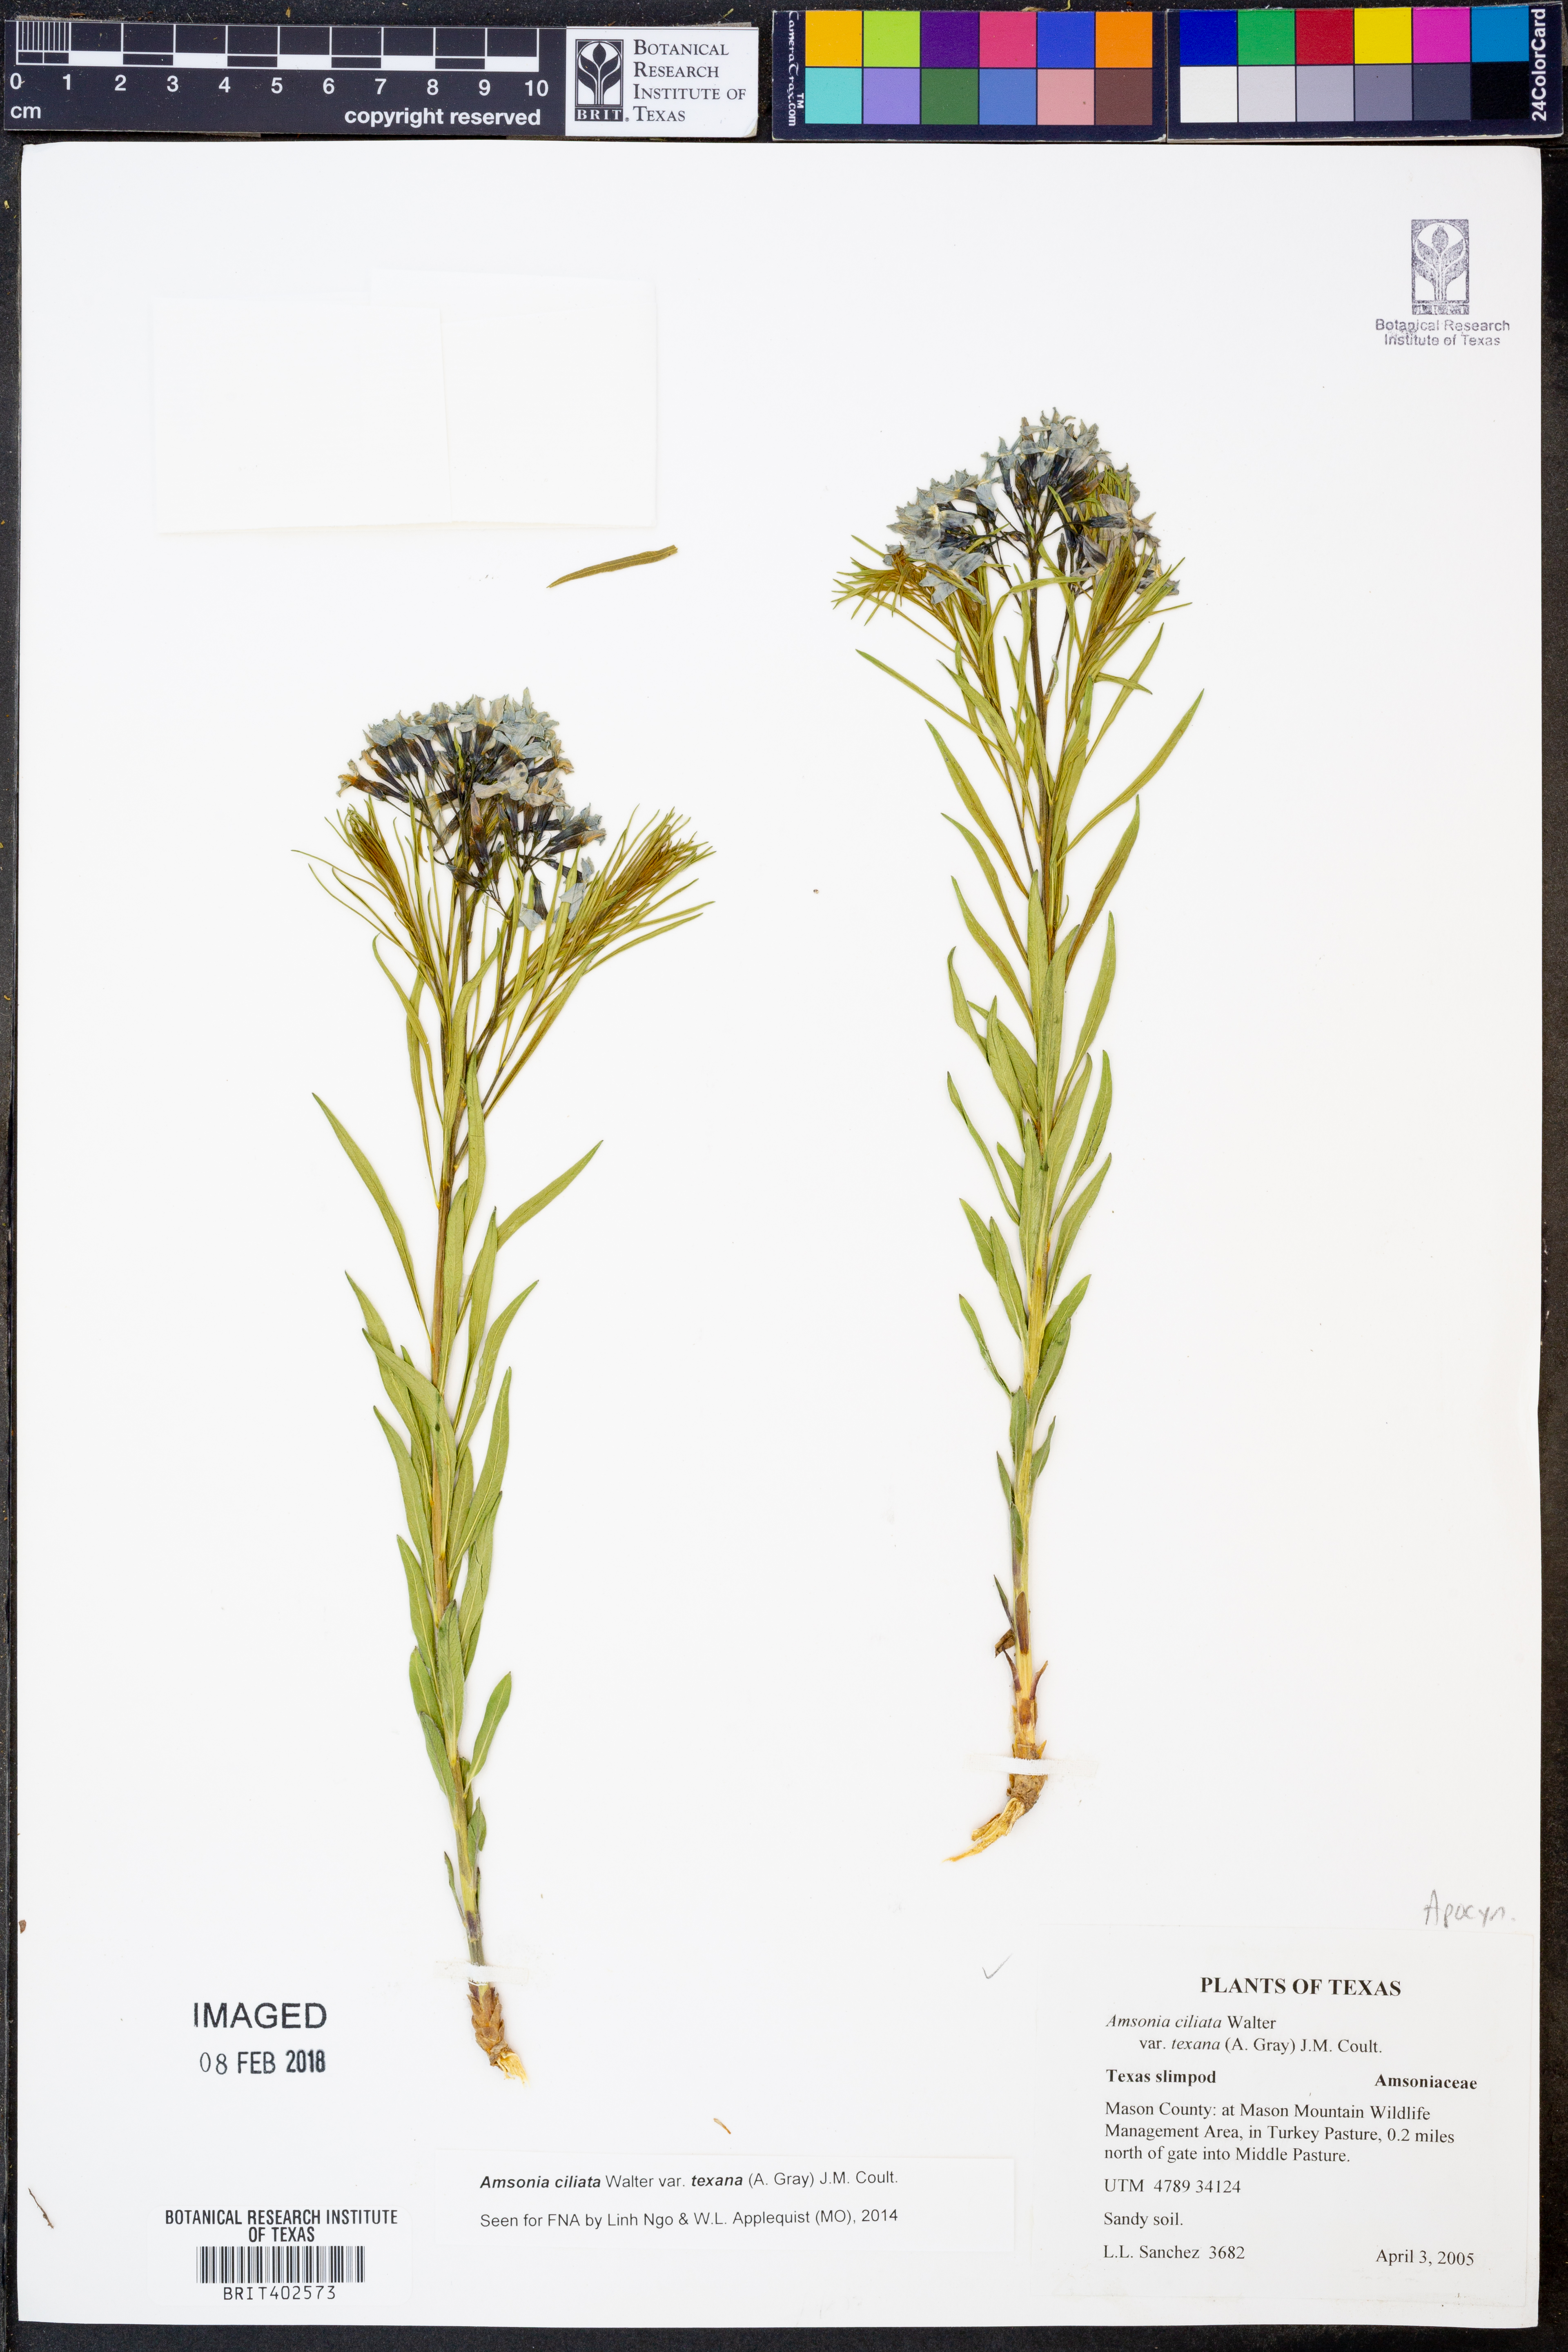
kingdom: Plantae
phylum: Tracheophyta
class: Magnoliopsida
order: Gentianales
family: Apocynaceae
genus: Amsonia
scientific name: Amsonia ciliata
